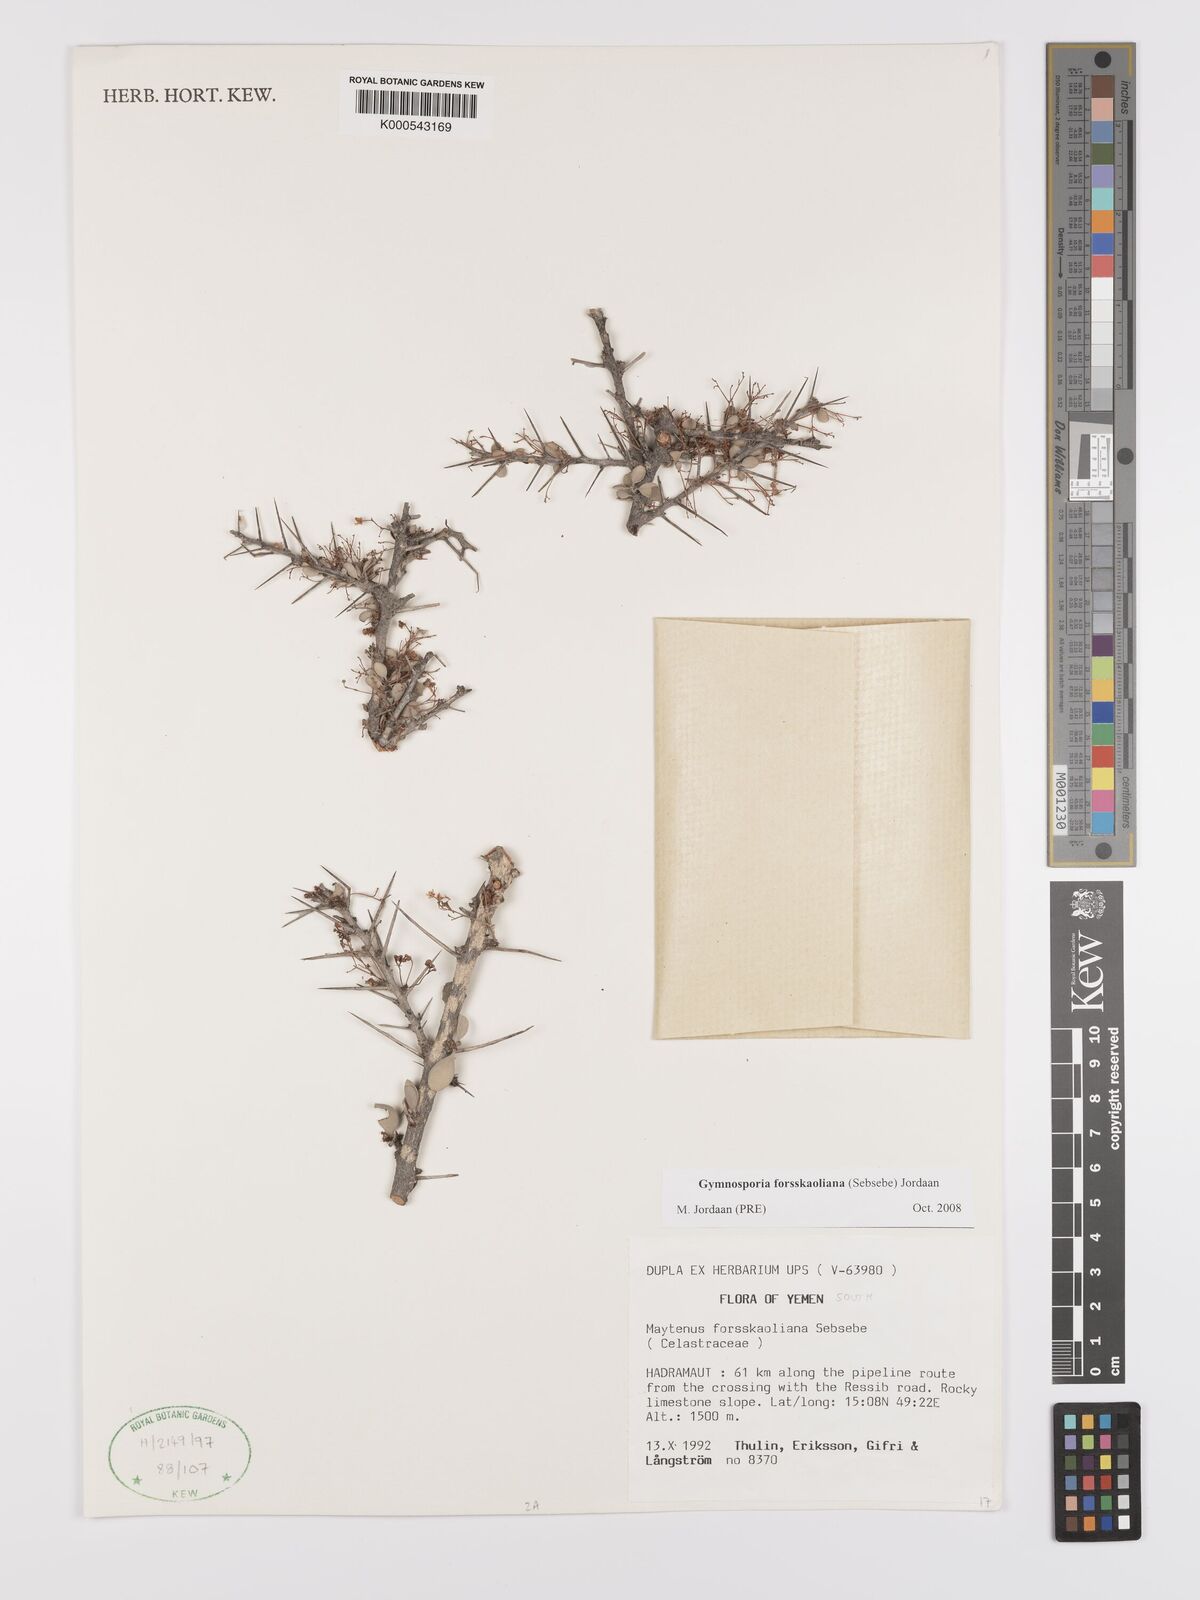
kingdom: Plantae
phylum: Tracheophyta
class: Magnoliopsida
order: Celastrales
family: Celastraceae
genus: Gymnosporia
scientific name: Gymnosporia forsskaoliana
